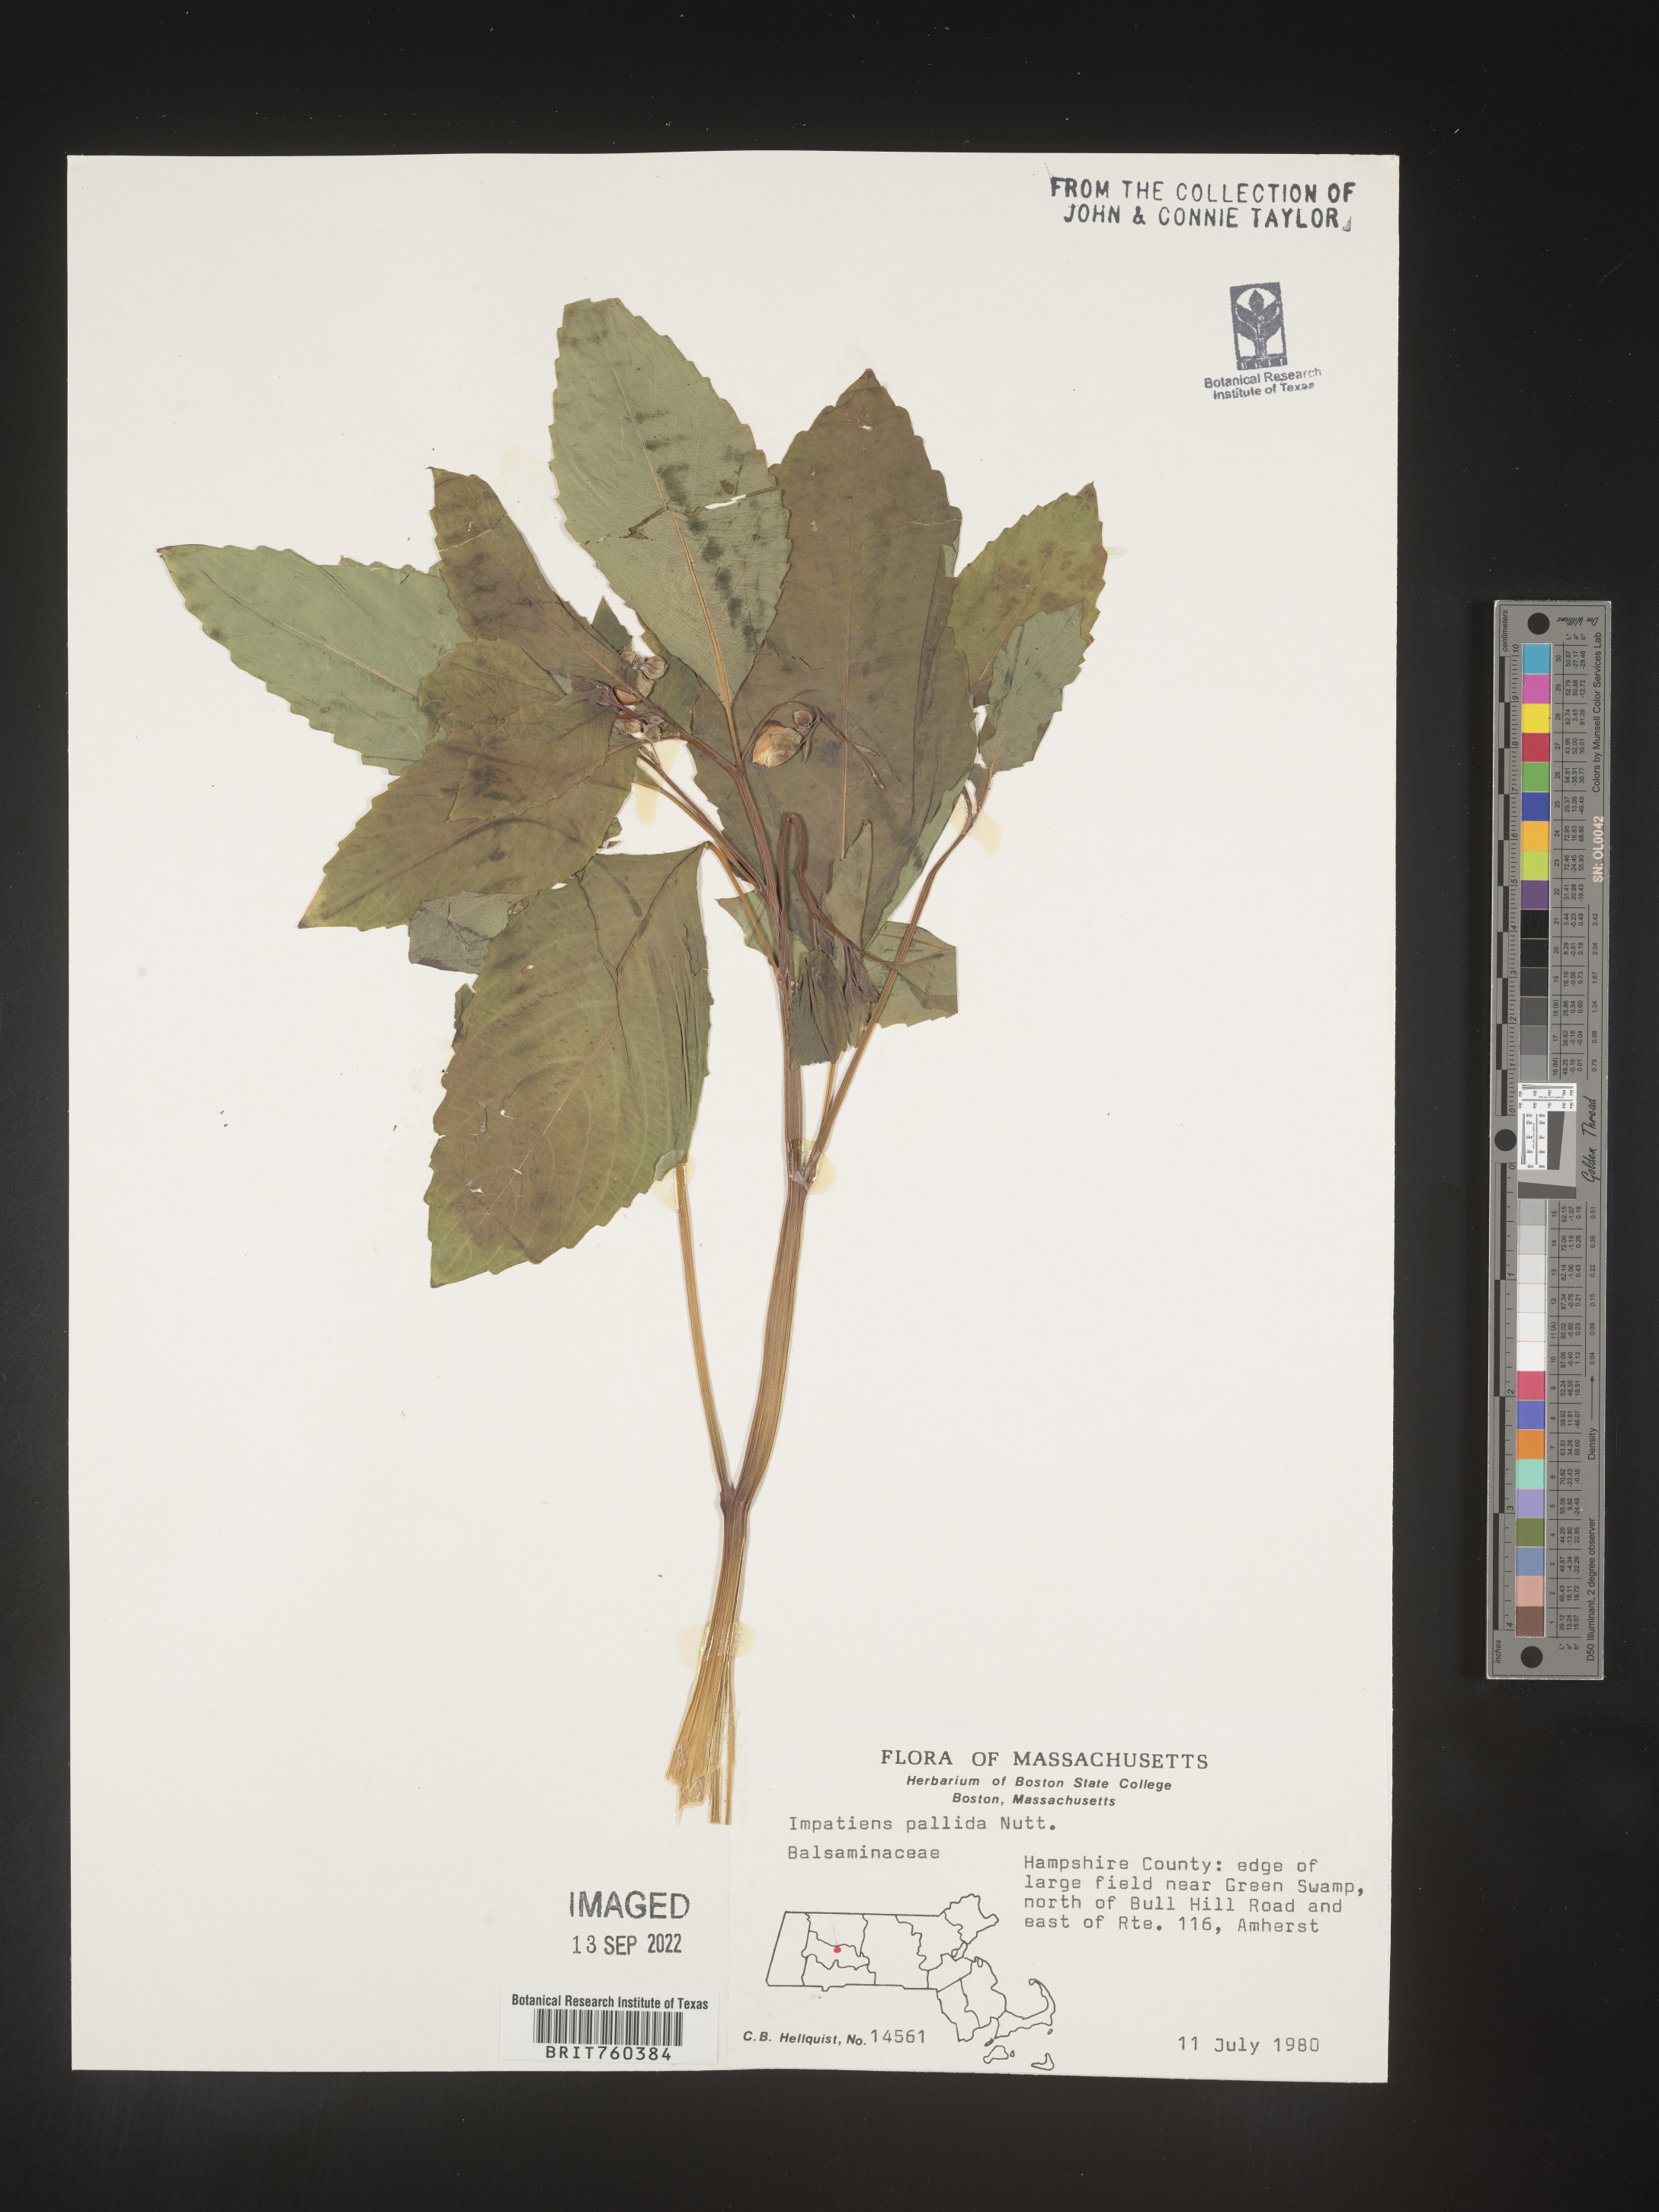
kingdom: Plantae
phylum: Tracheophyta
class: Magnoliopsida
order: Ericales
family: Balsaminaceae
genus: Impatiens
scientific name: Impatiens pallida
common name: Pale snapweed
